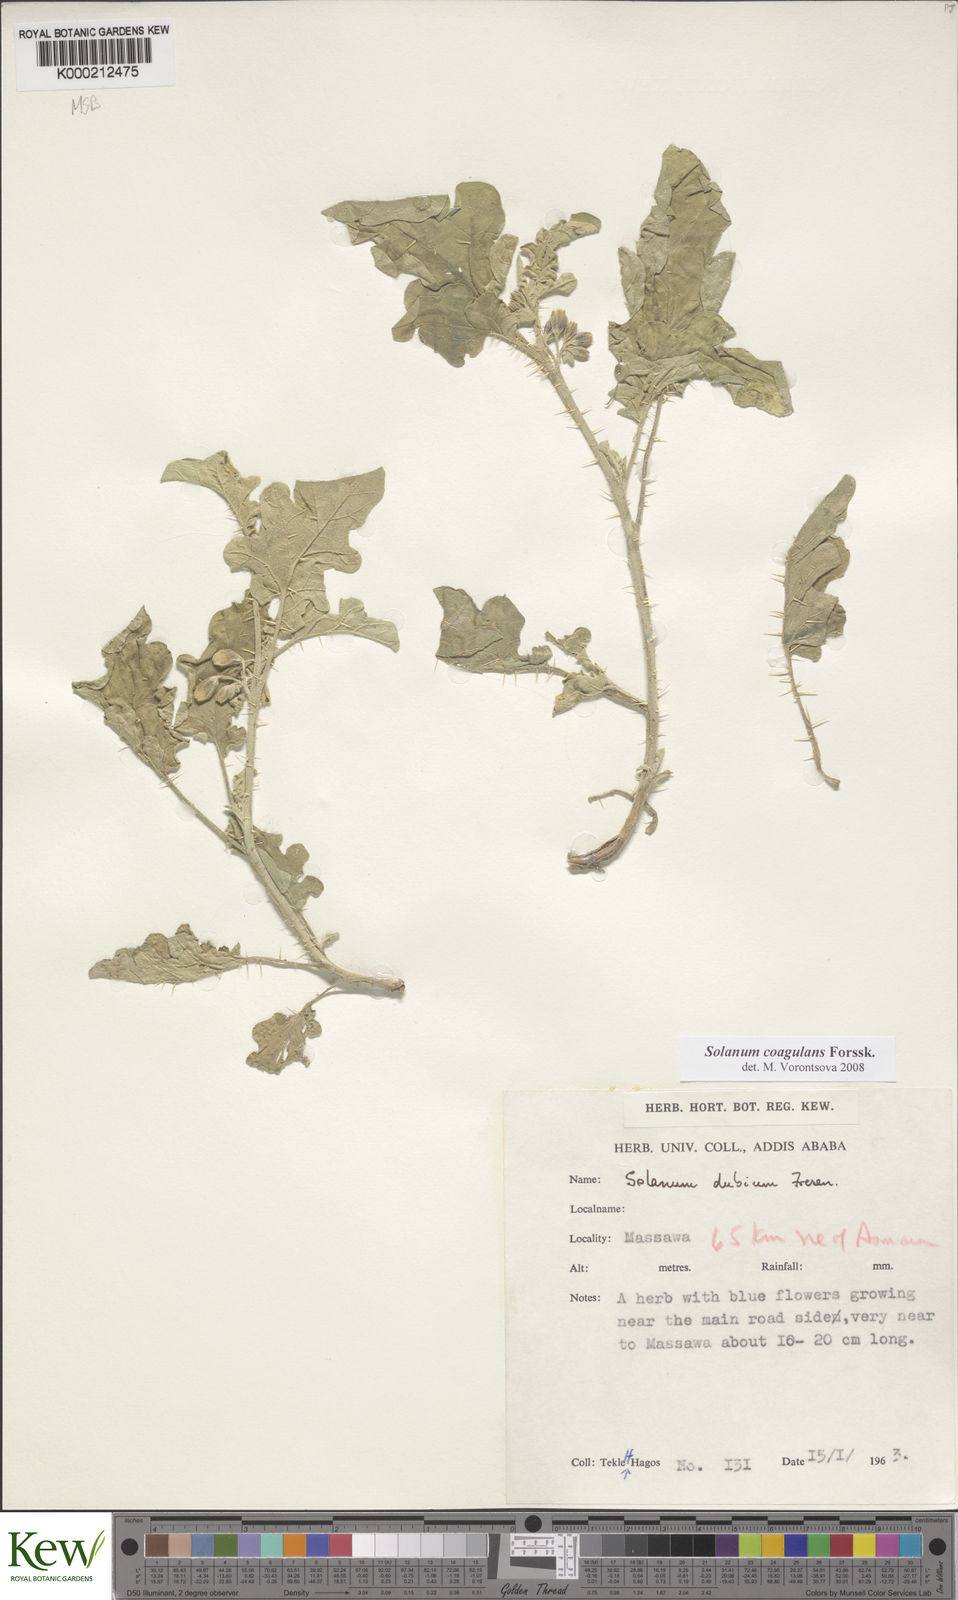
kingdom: Plantae
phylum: Tracheophyta
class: Magnoliopsida
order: Solanales
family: Solanaceae
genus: Solanum
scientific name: Solanum coagulans
